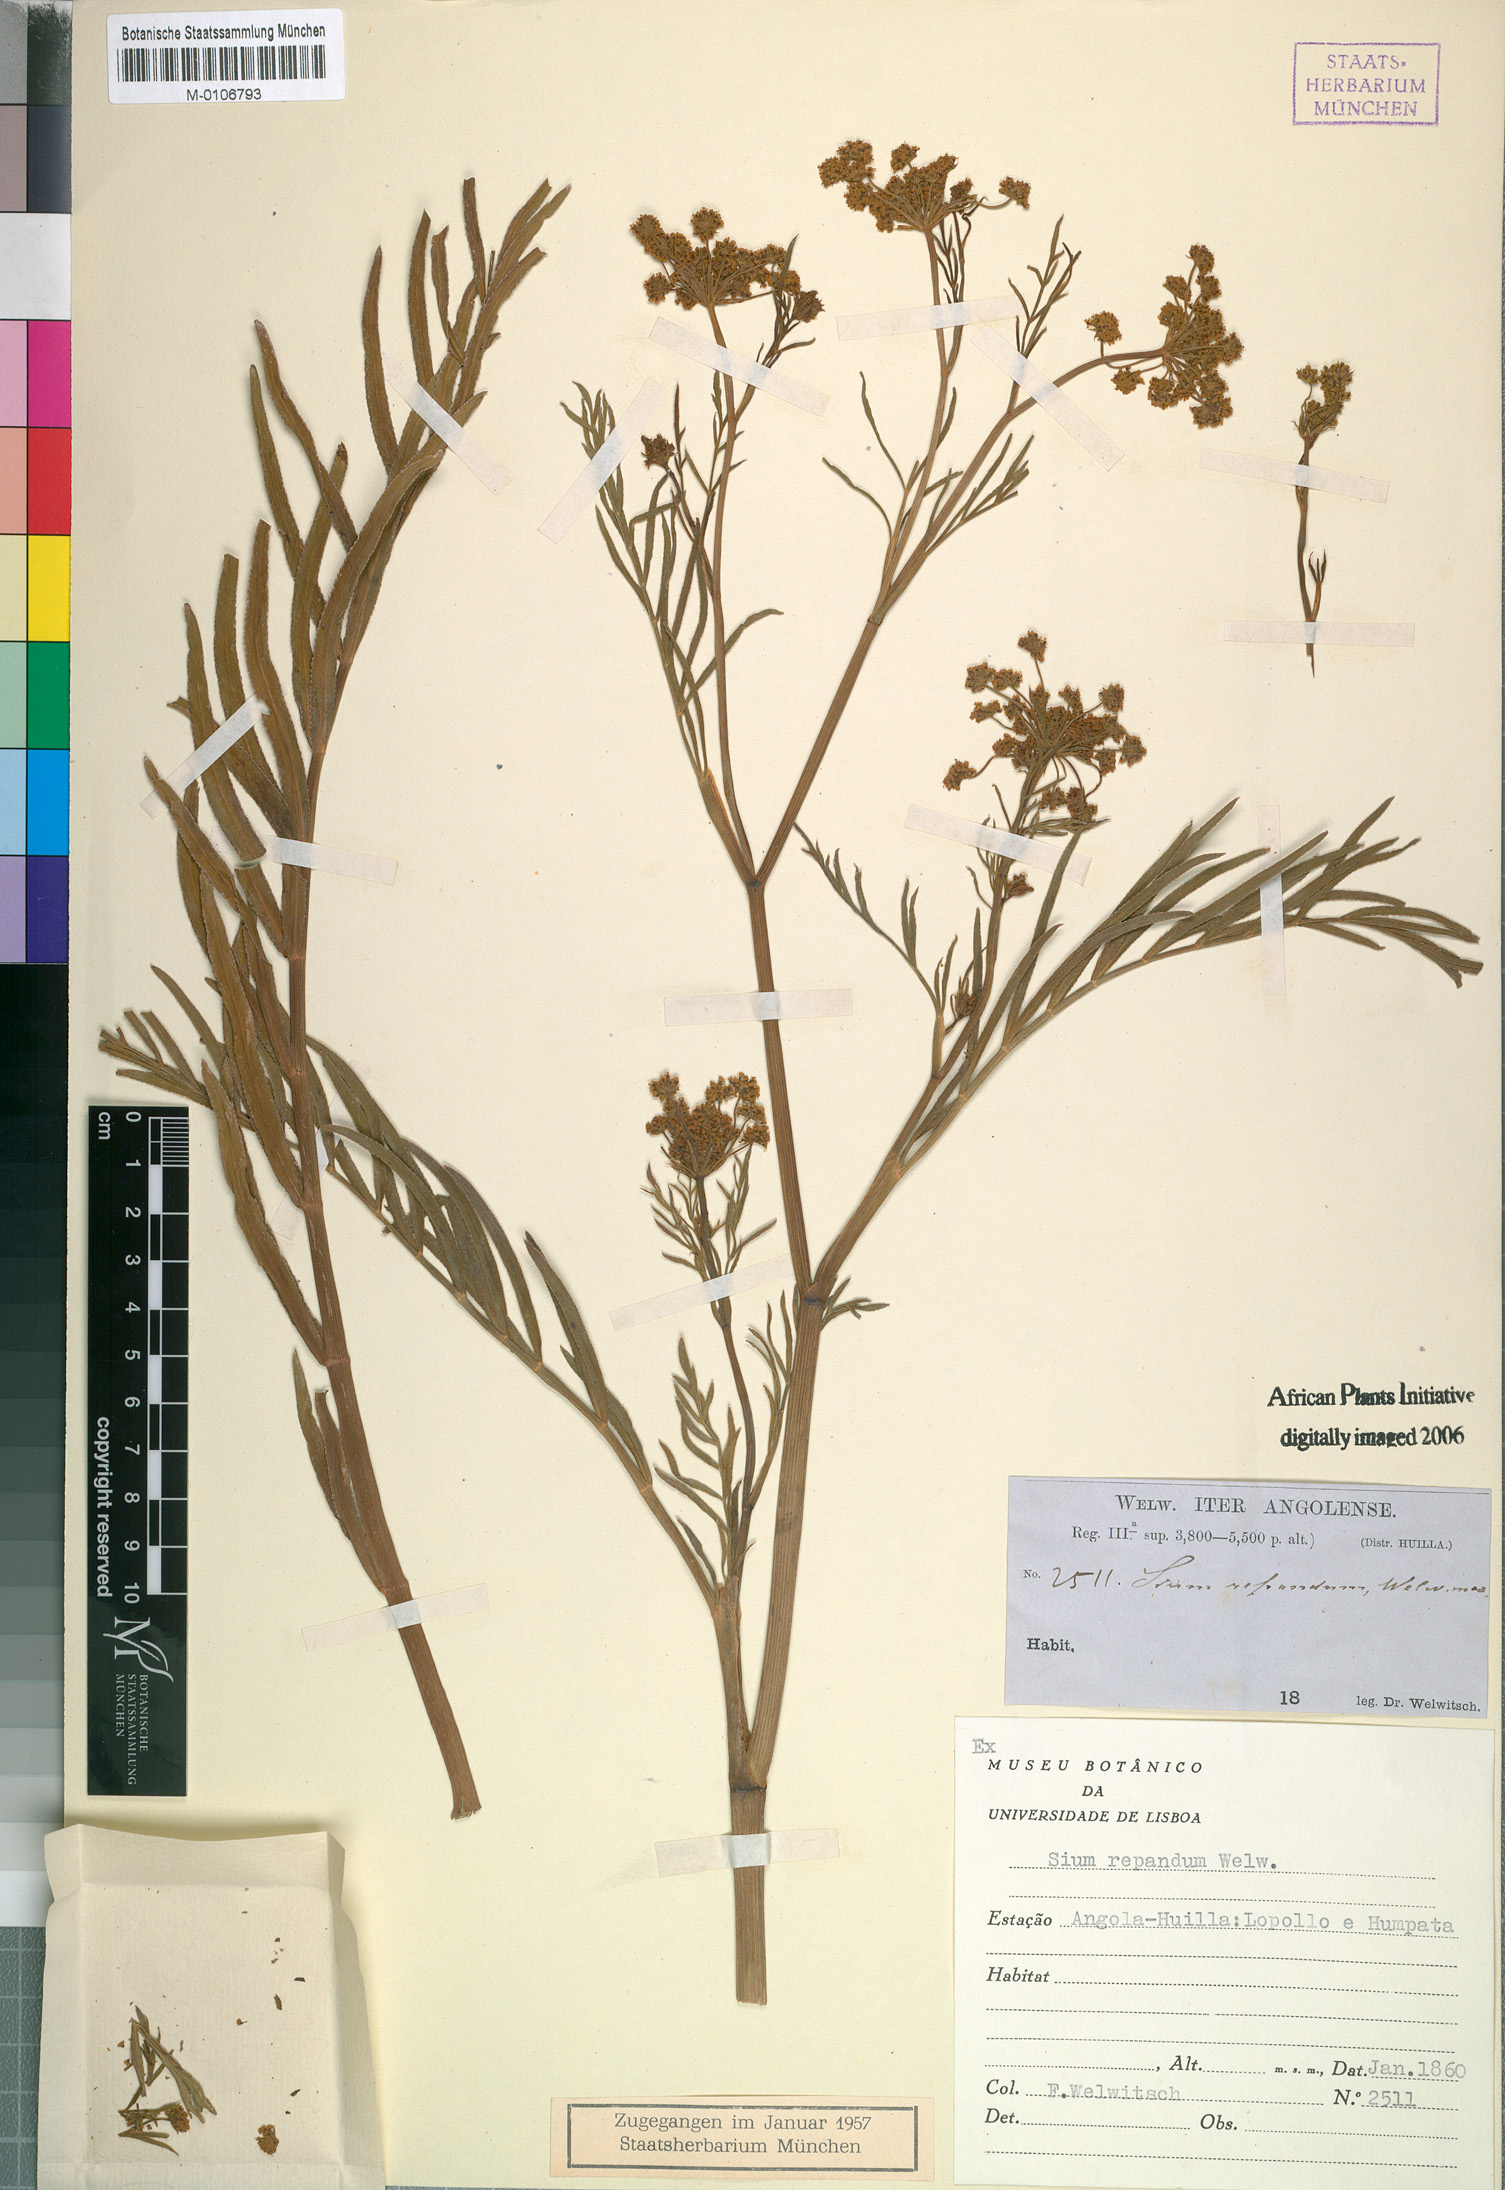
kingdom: Plantae
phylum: Tracheophyta
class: Magnoliopsida
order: Apiales
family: Apiaceae
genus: Berula
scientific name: Berula repanda
